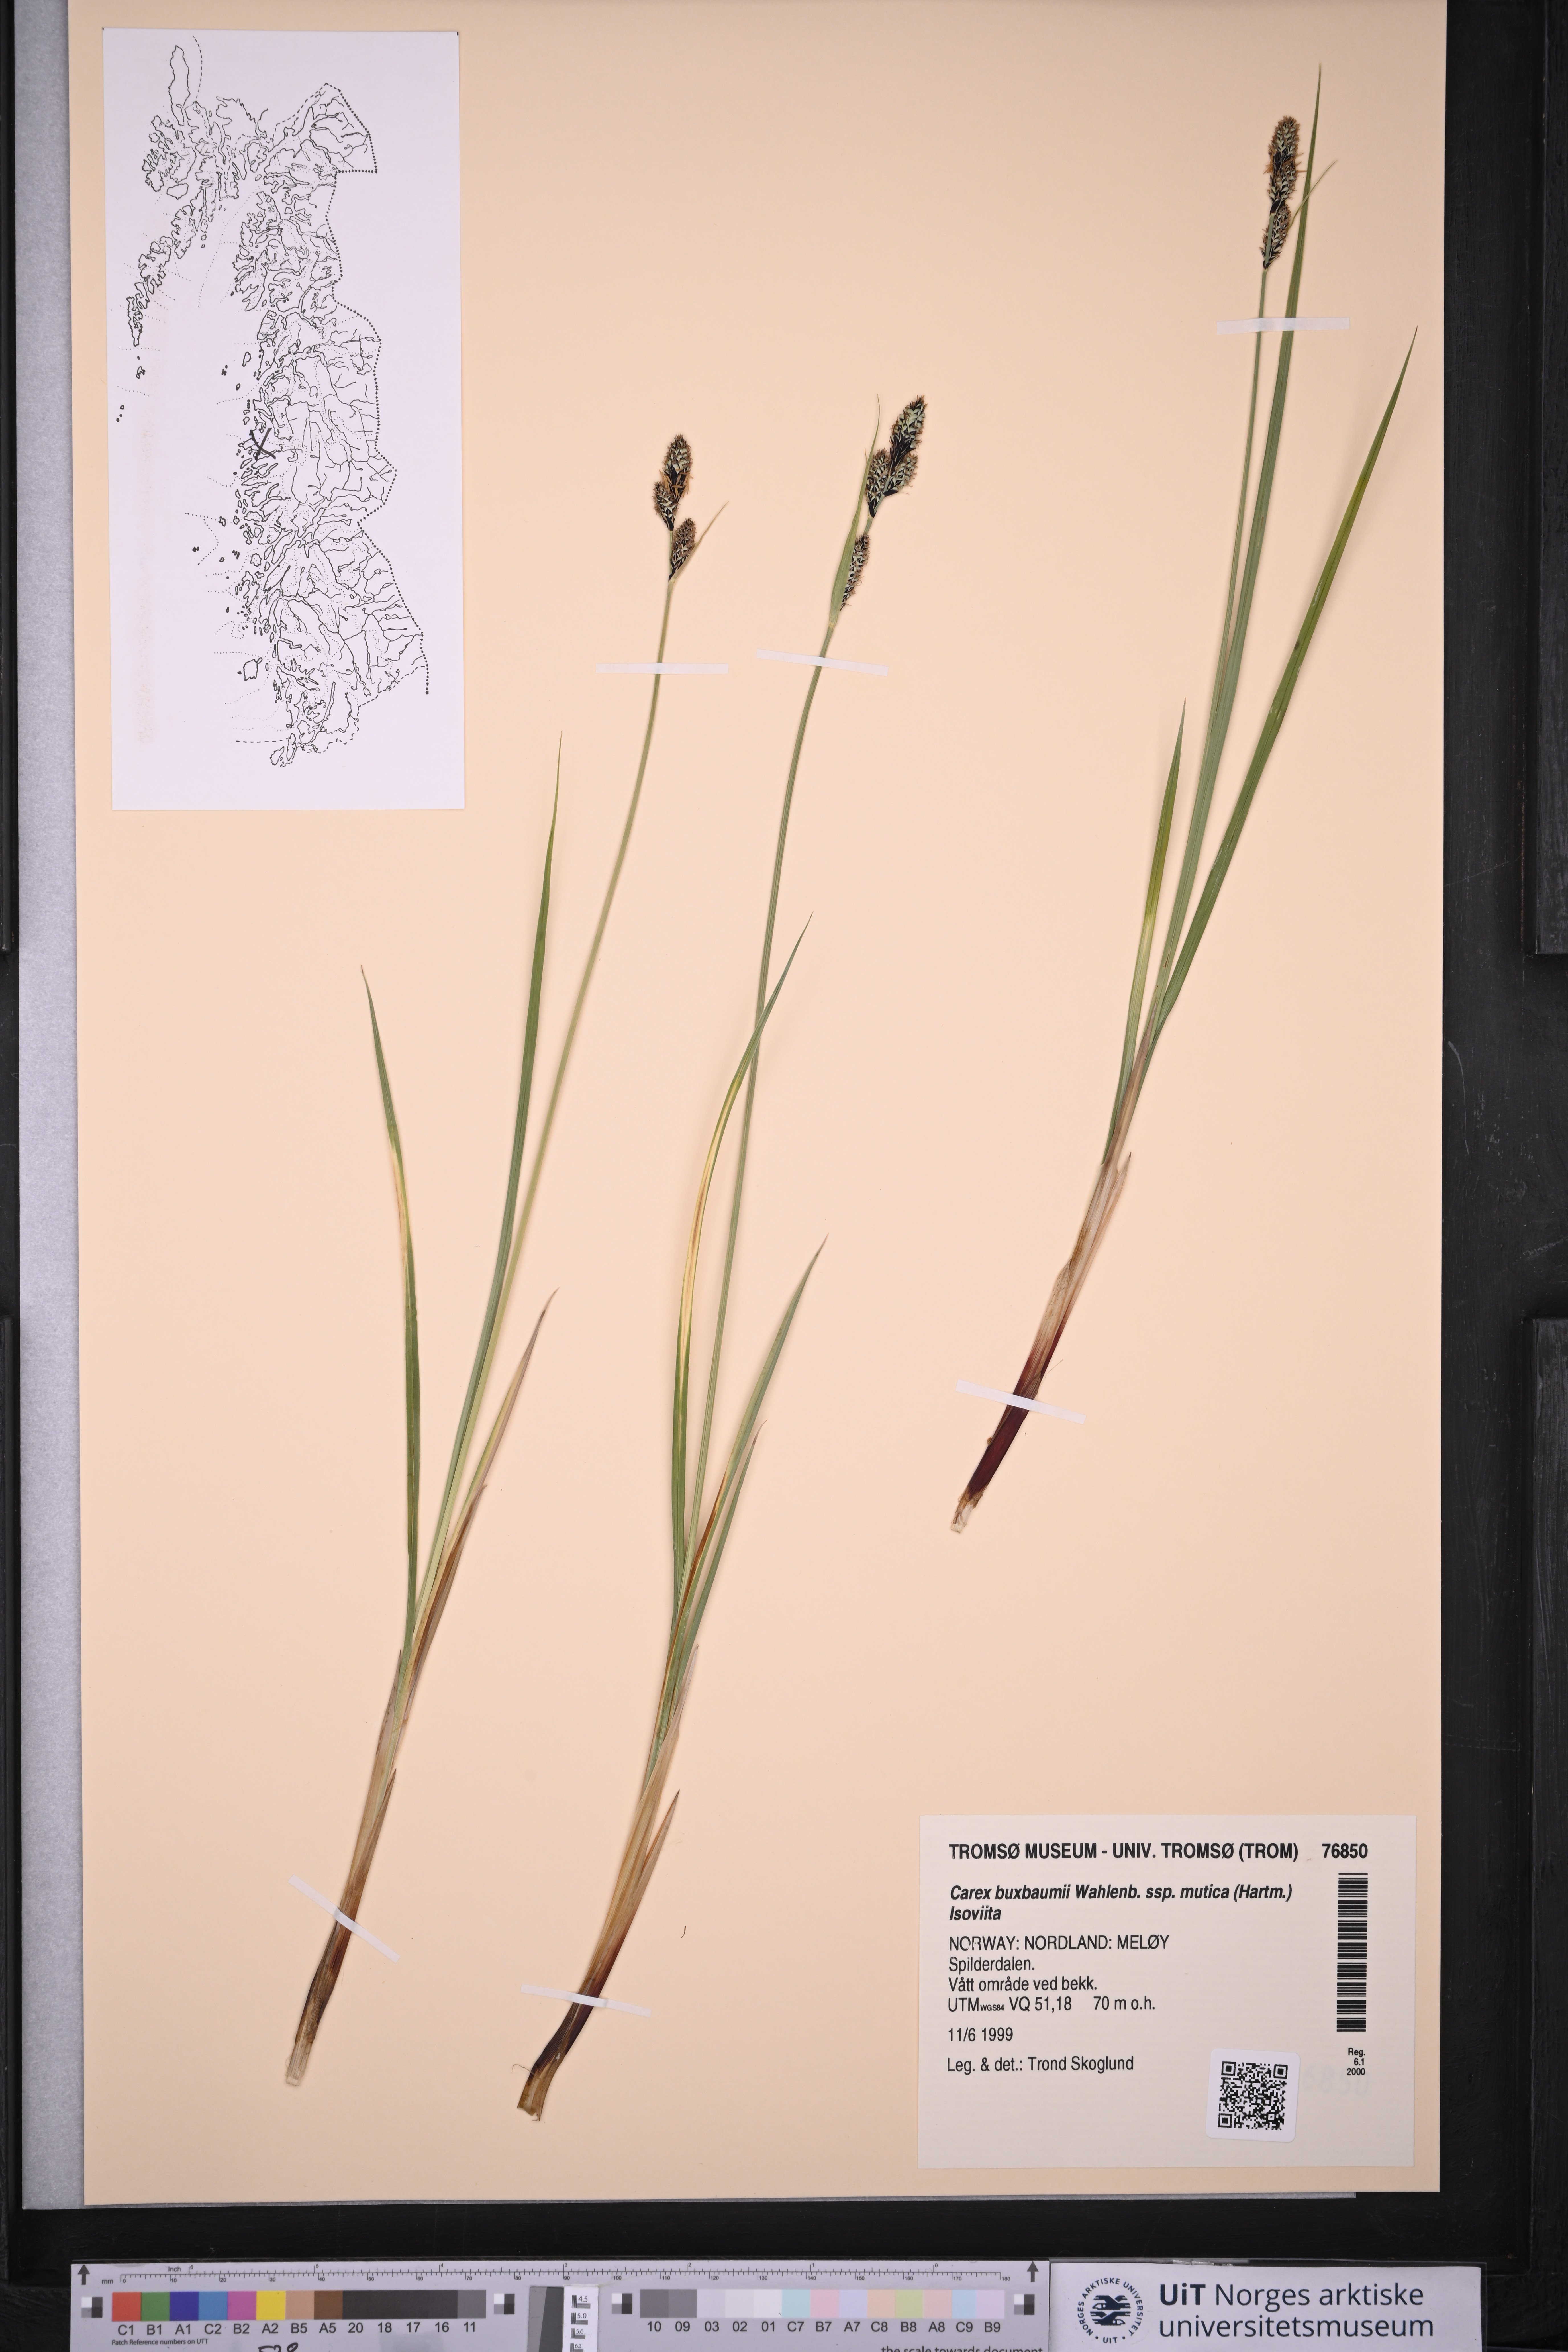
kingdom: Plantae
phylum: Tracheophyta
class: Liliopsida
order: Poales
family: Cyperaceae
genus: Carex
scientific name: Carex adelostoma
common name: Circumpolar sedge
